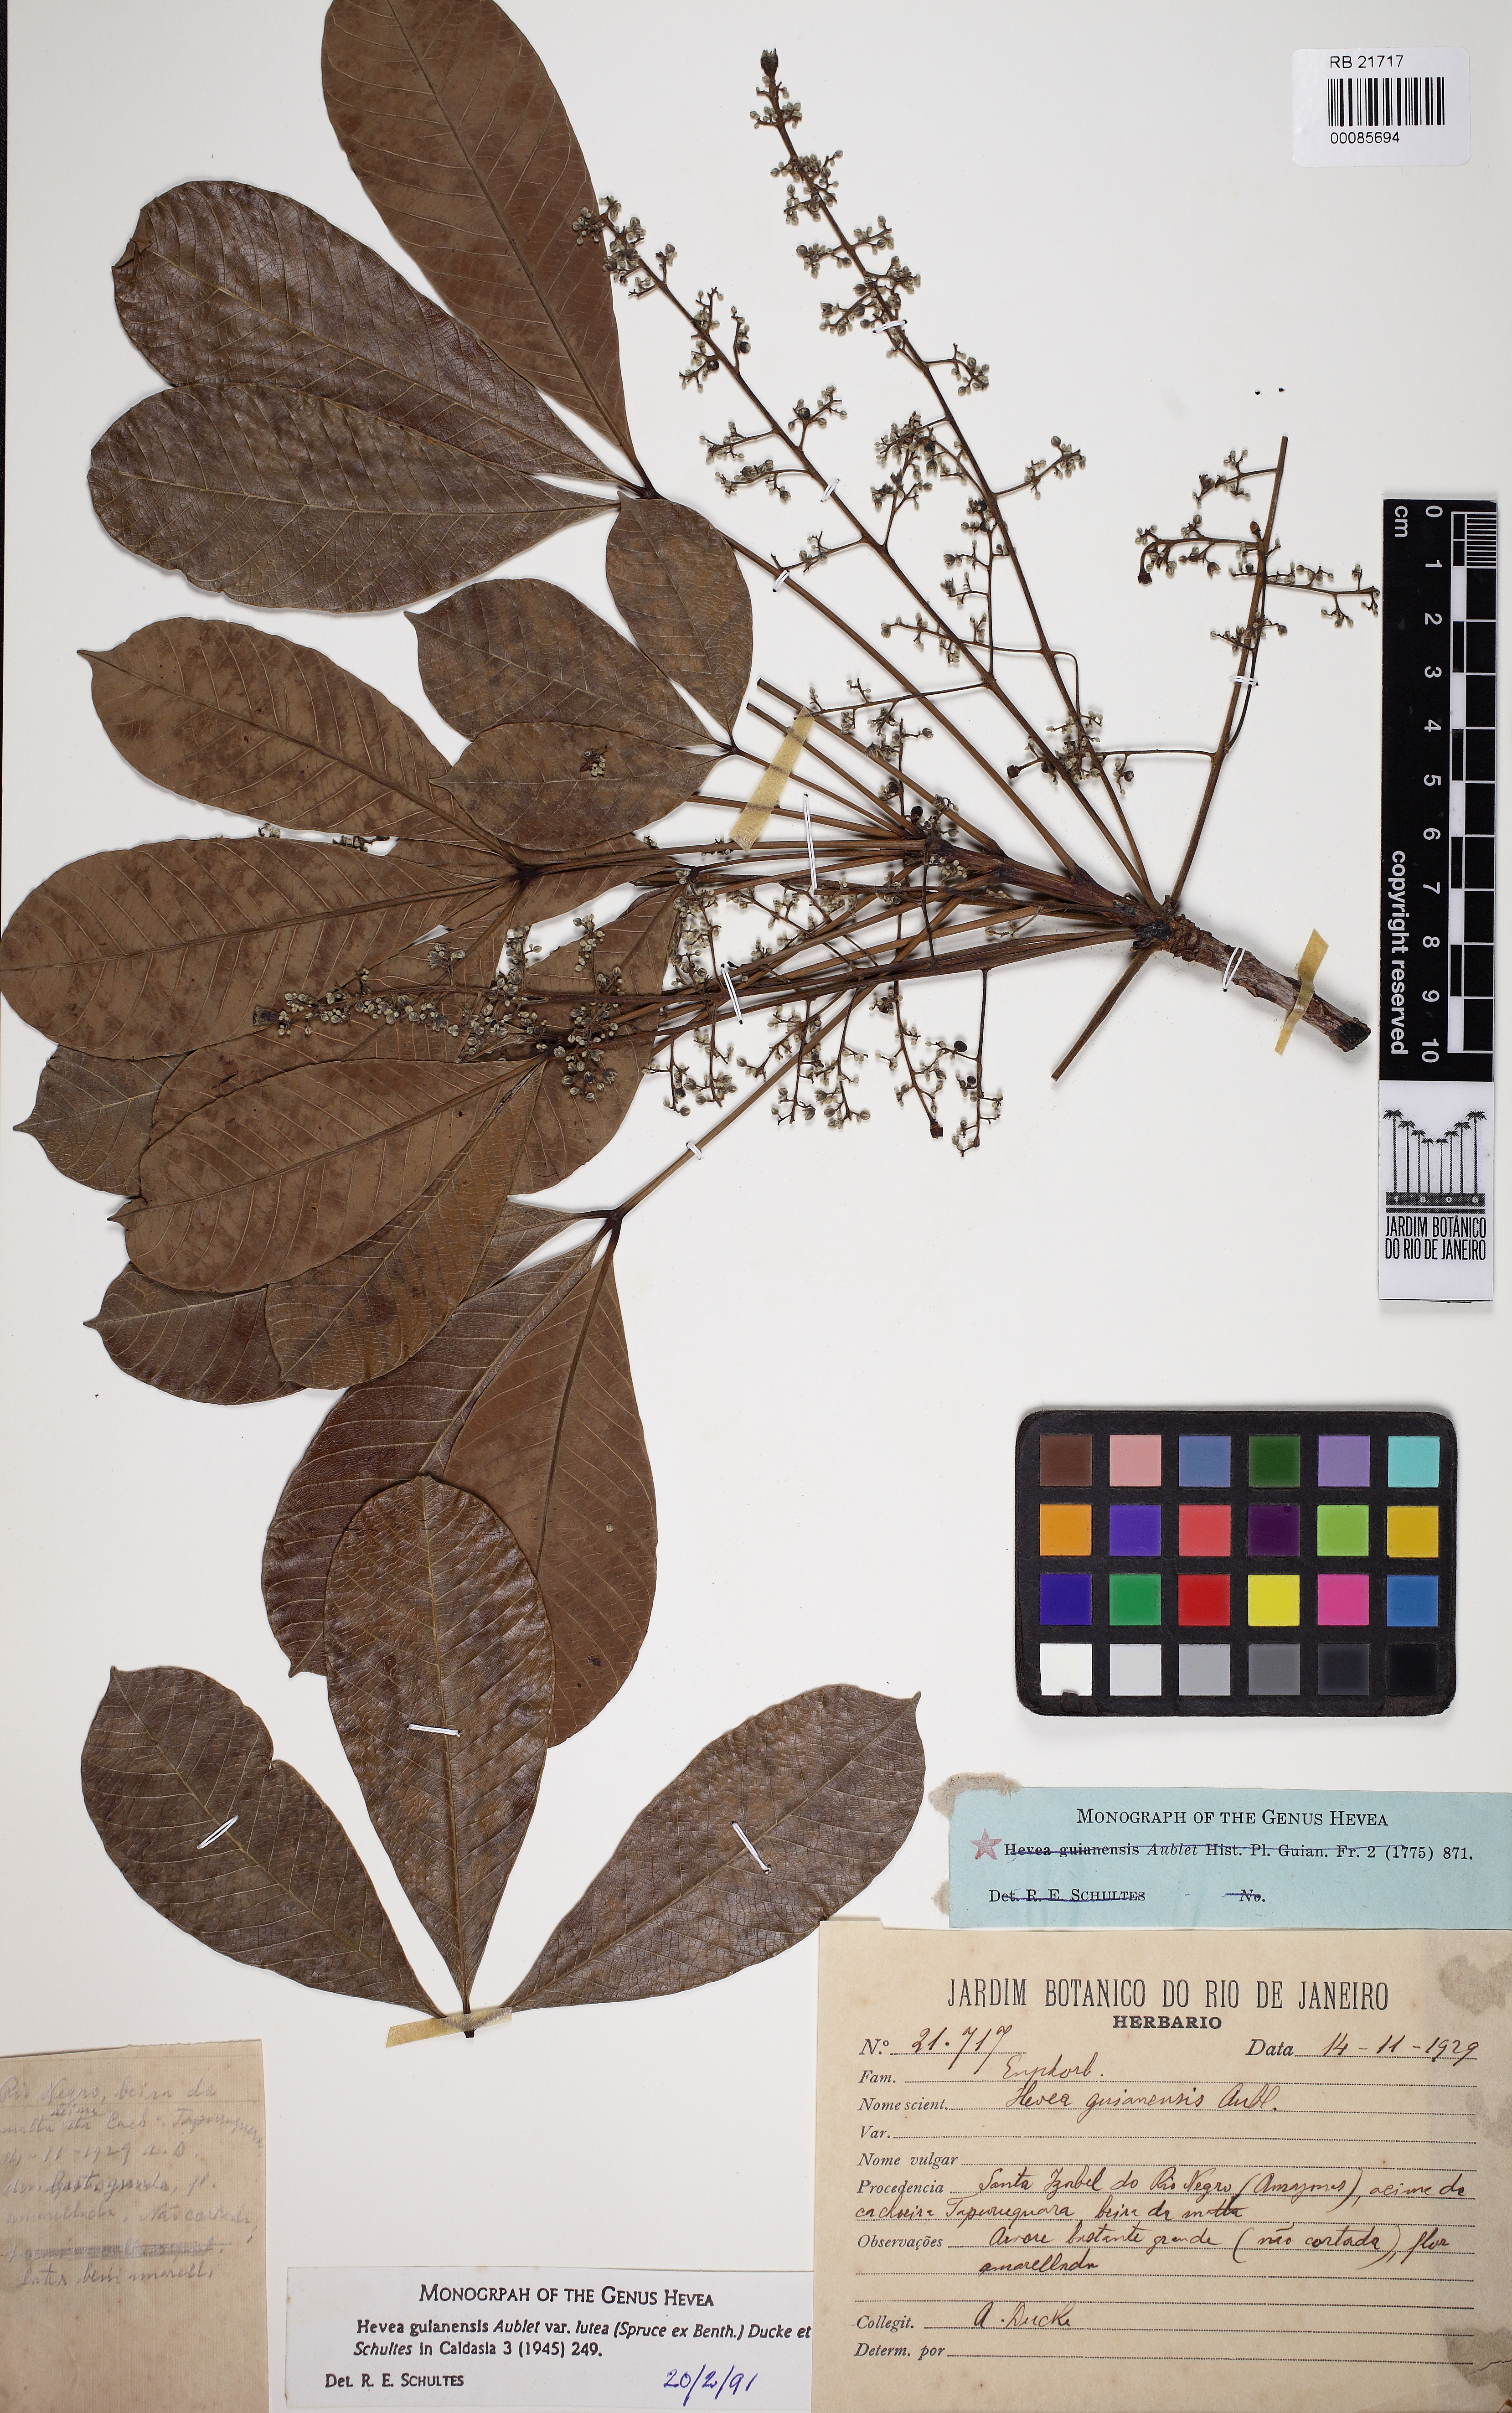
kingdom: Plantae
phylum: Tracheophyta
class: Magnoliopsida
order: Malpighiales
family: Euphorbiaceae
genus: Hevea
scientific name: Hevea guianensis
